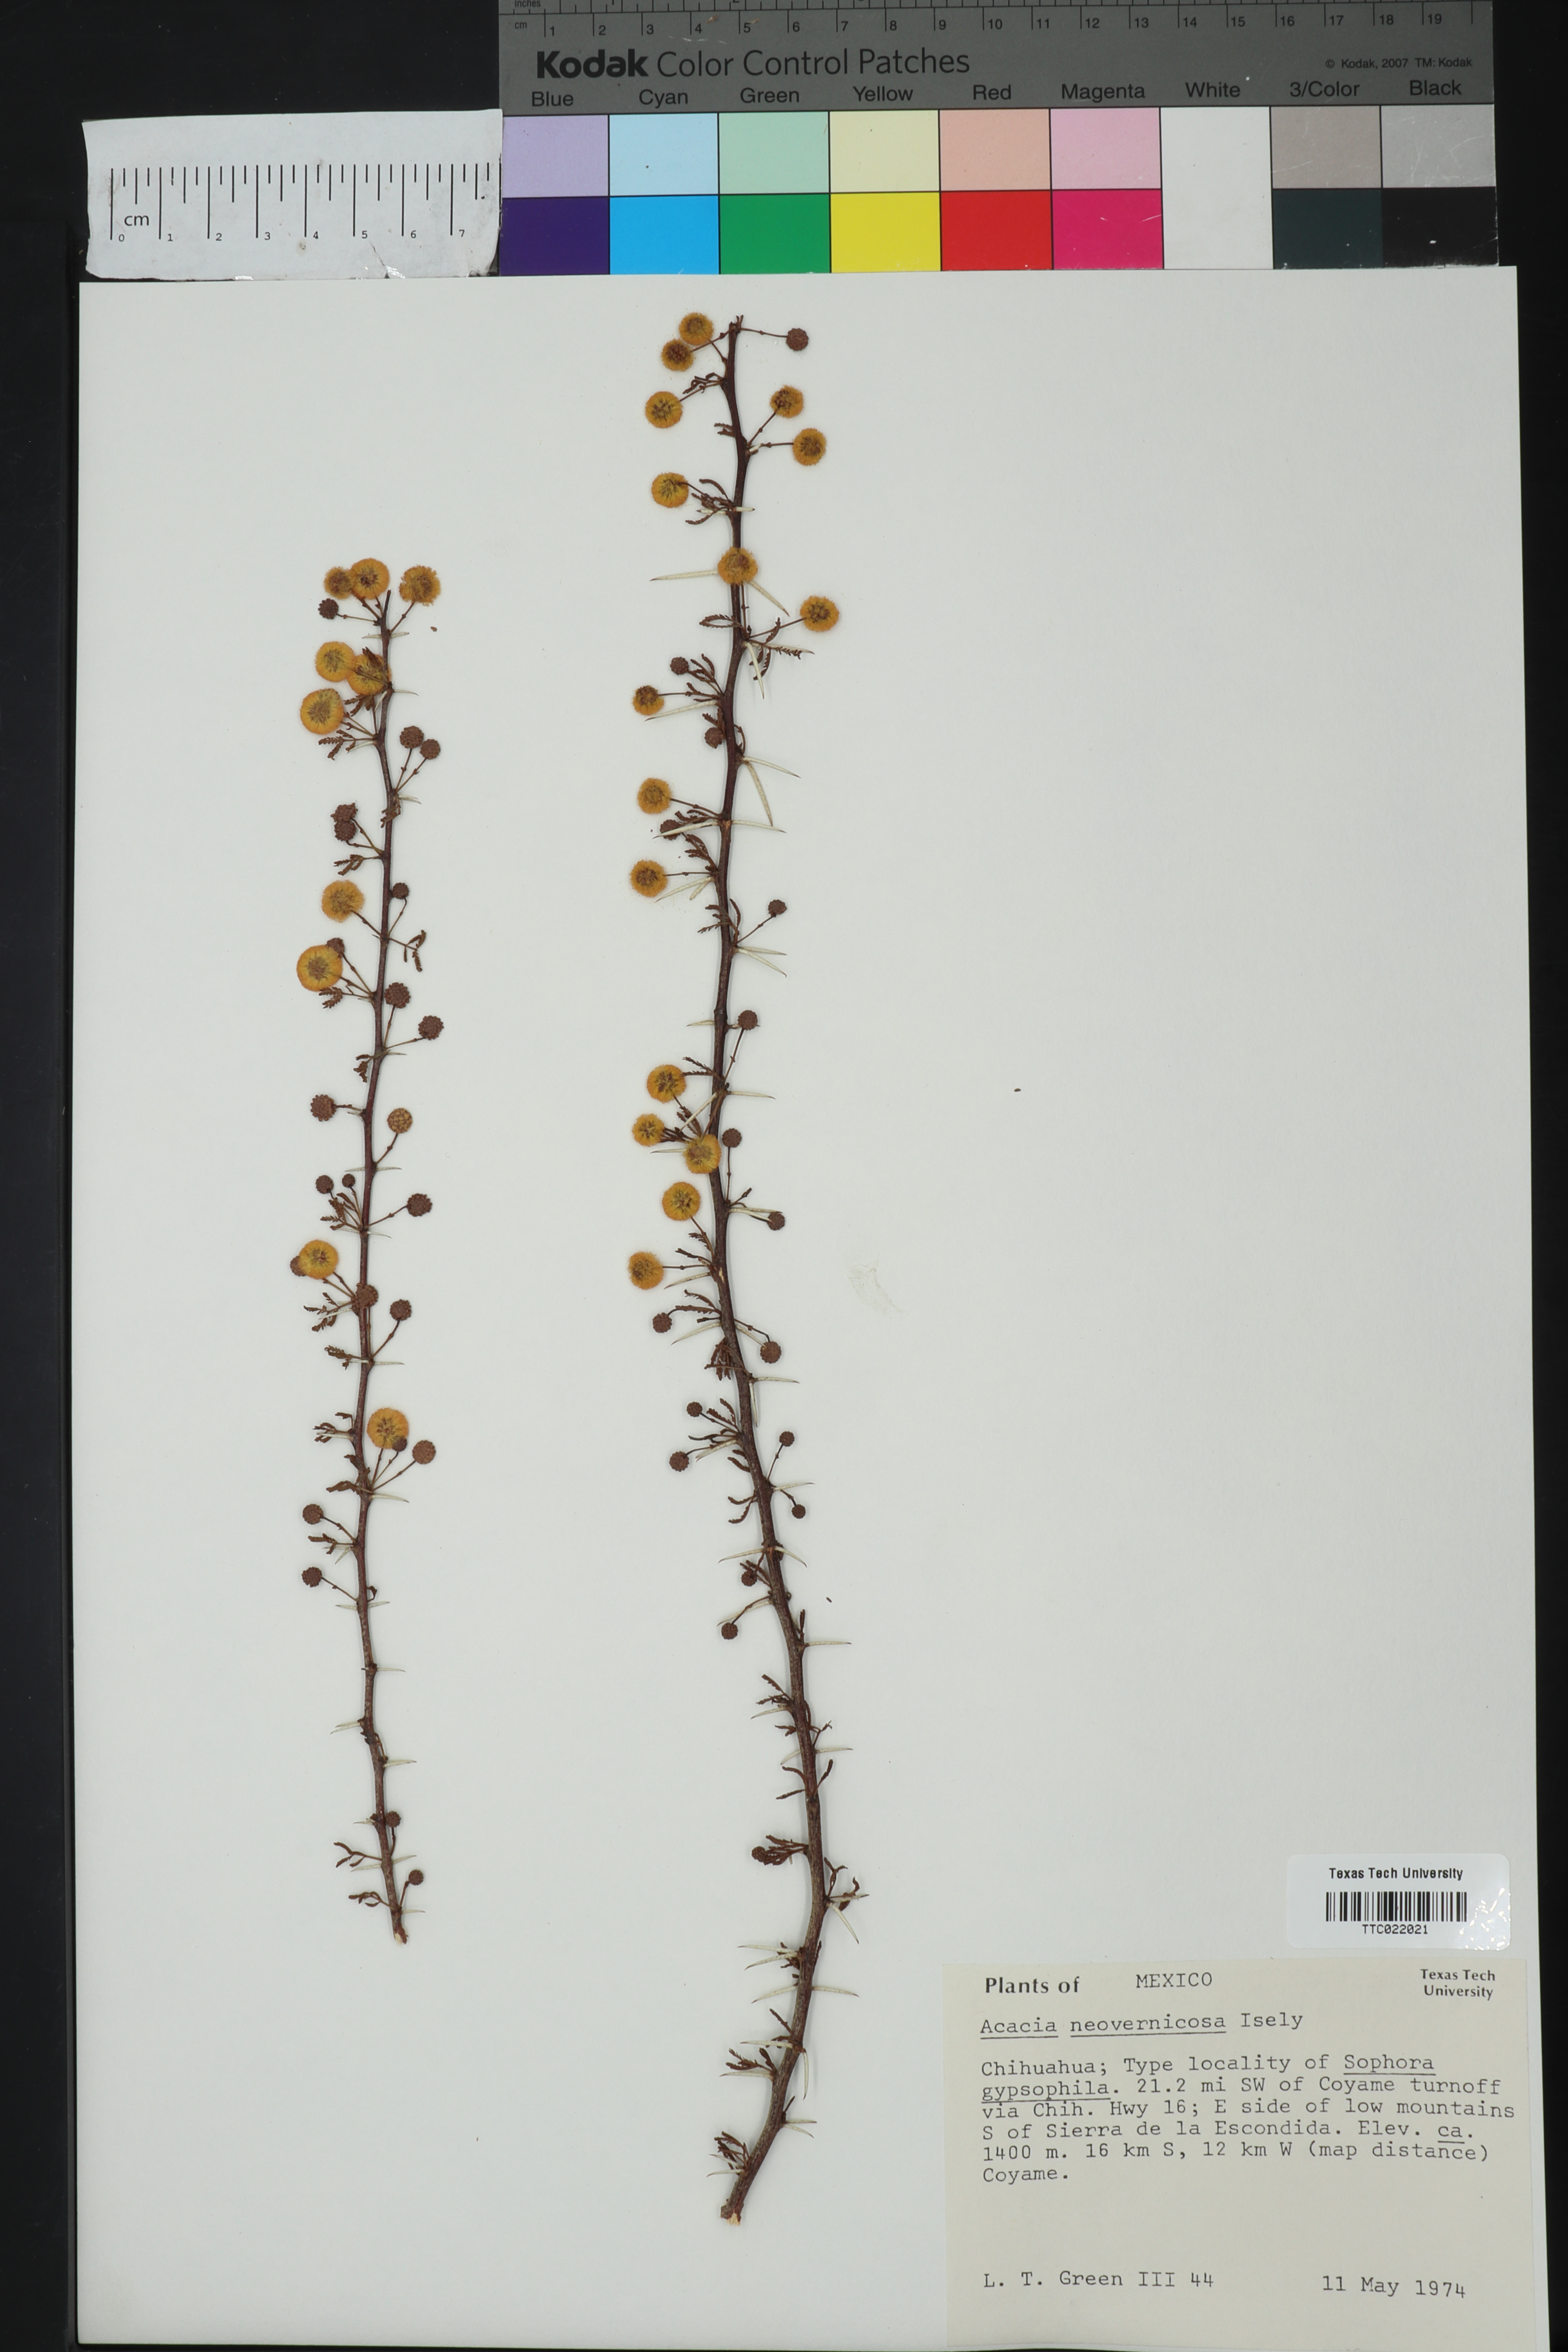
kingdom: Plantae
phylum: Tracheophyta
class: Magnoliopsida
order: Fabales
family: Fabaceae
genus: Vachellia
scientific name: Vachellia vernicosa
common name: Viscid acacia
